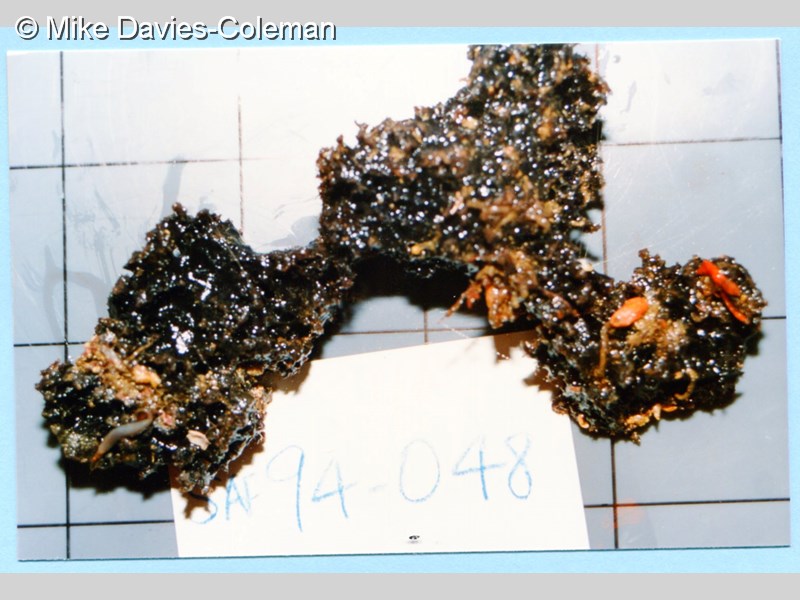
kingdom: Animalia
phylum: Porifera
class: Demospongiae
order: Poecilosclerida
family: Iotrochotidae
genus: Iotrochota
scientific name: Iotrochota baculifera
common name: Purple-staining sponge
